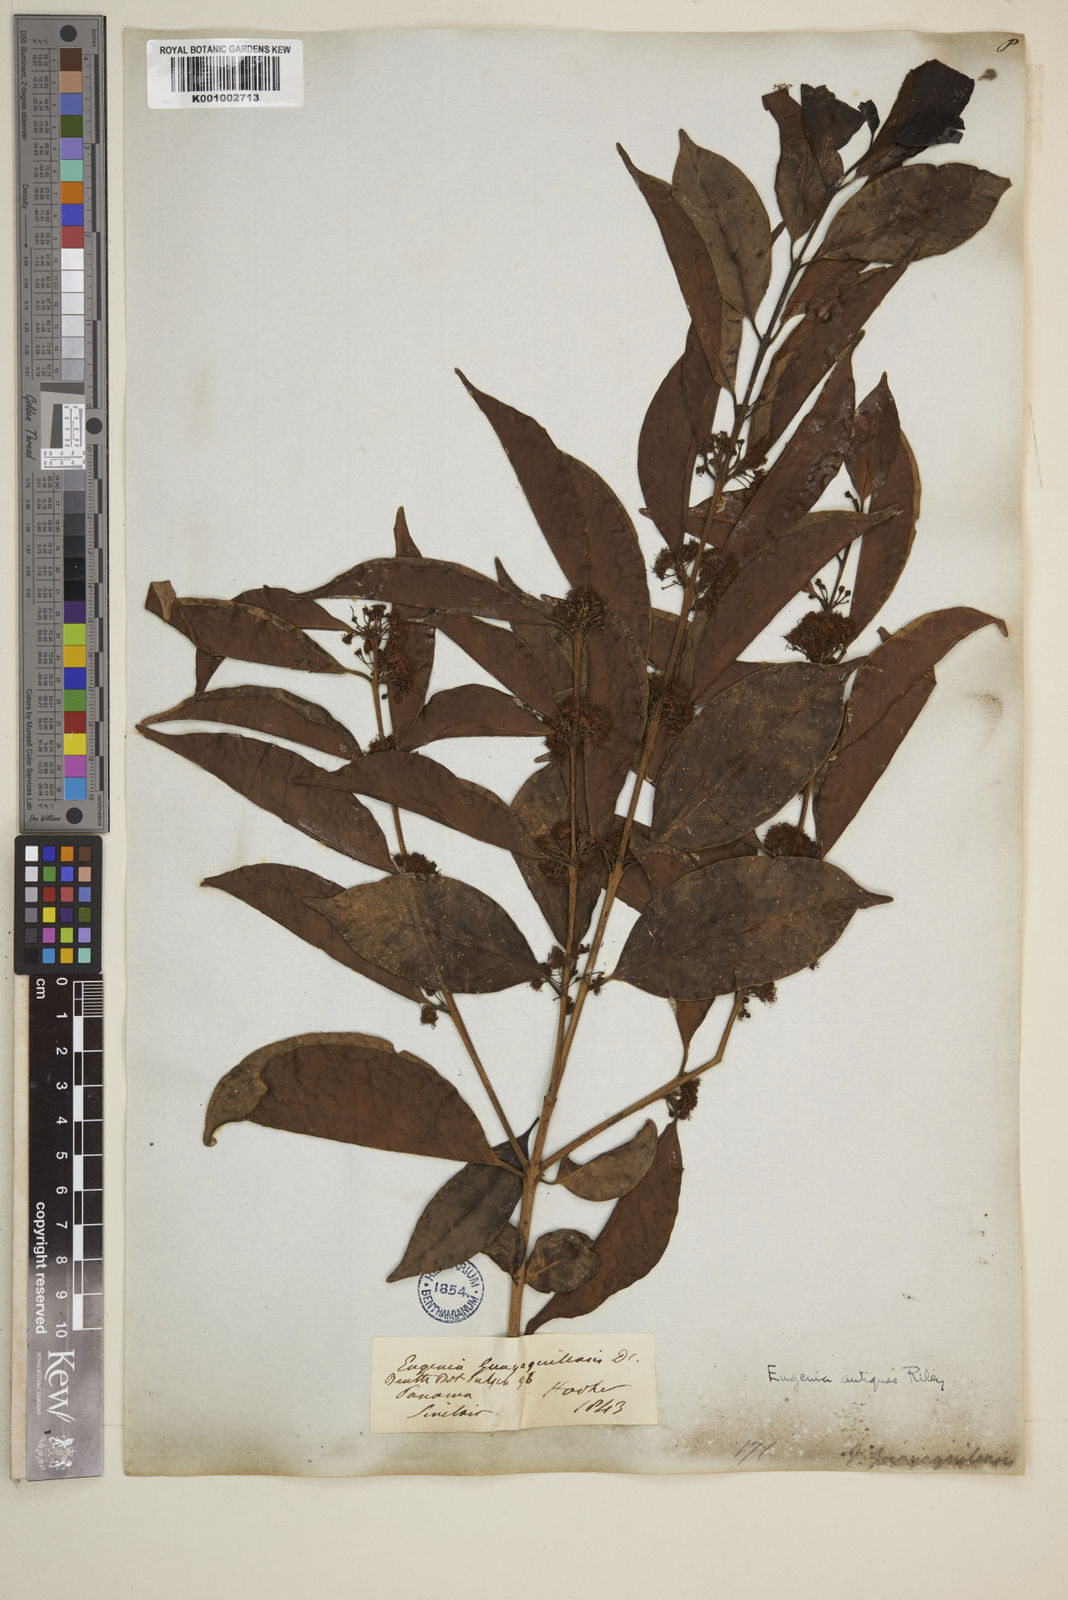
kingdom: Plantae
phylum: Tracheophyta
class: Magnoliopsida
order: Myrtales
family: Myrtaceae
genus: Eugenia
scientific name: Eugenia acapulcensis
